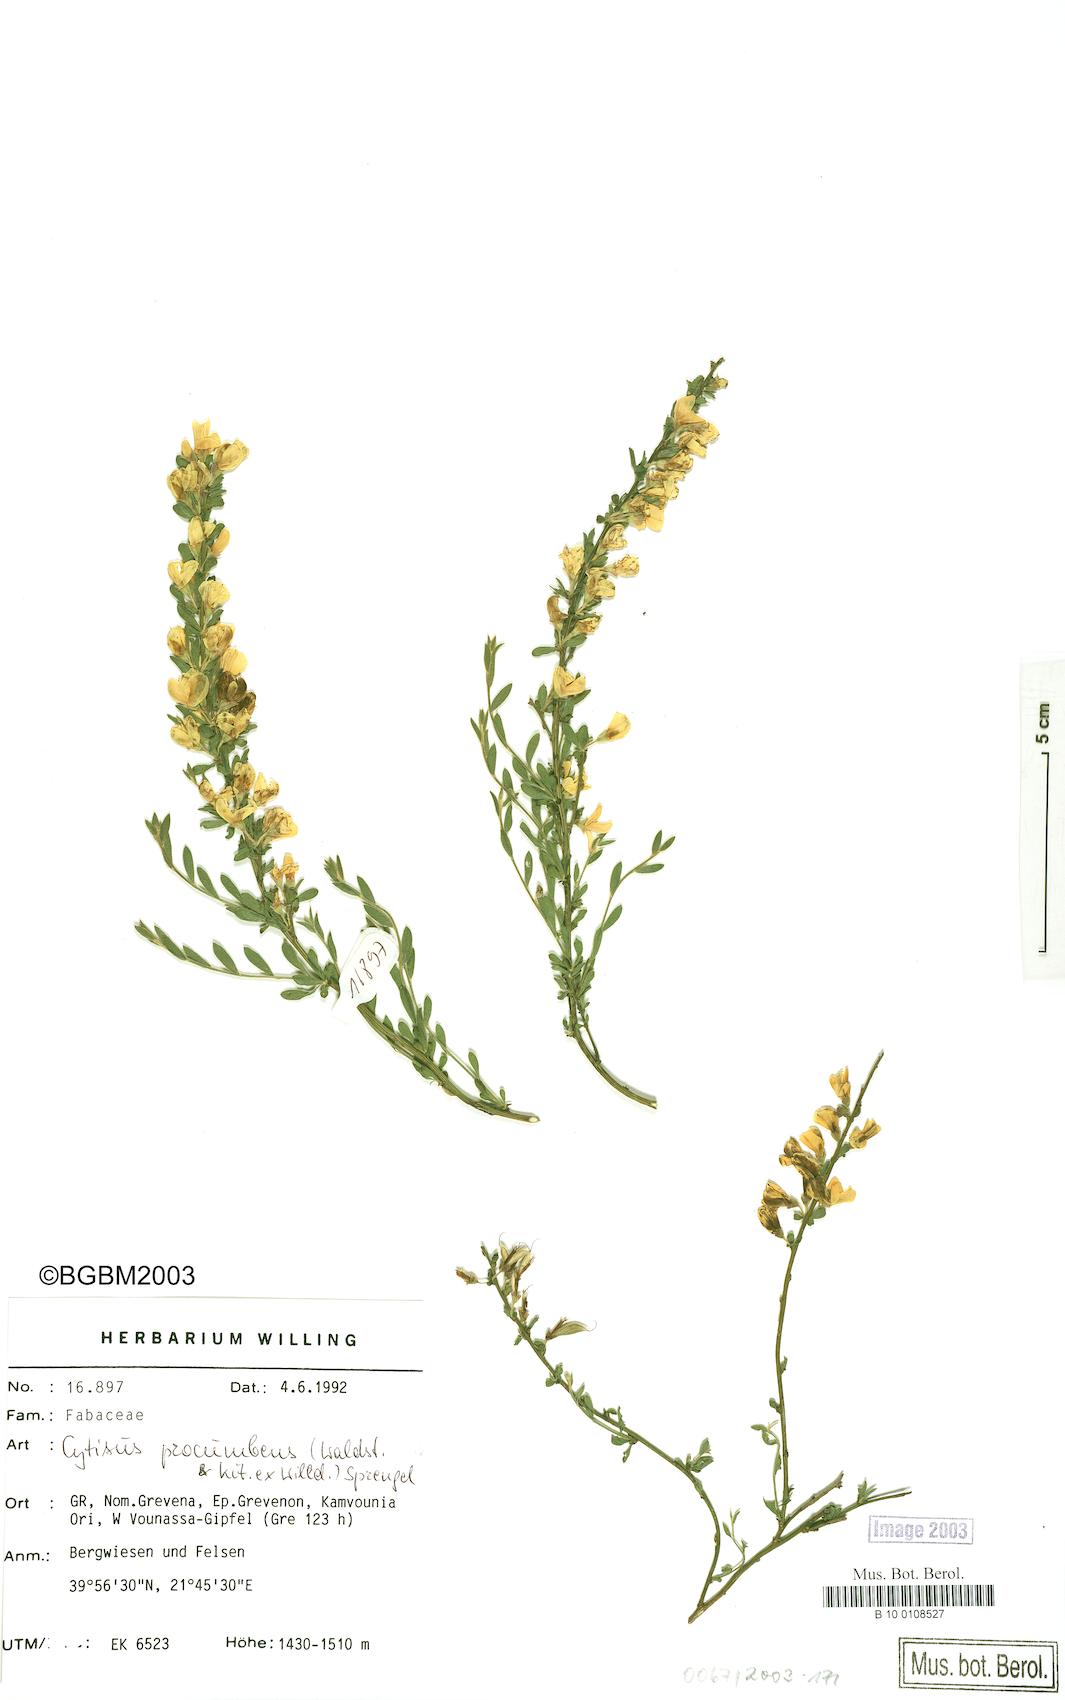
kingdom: Plantae
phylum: Tracheophyta
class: Magnoliopsida
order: Fabales
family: Fabaceae
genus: Cytisus
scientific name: Cytisus procumbens
